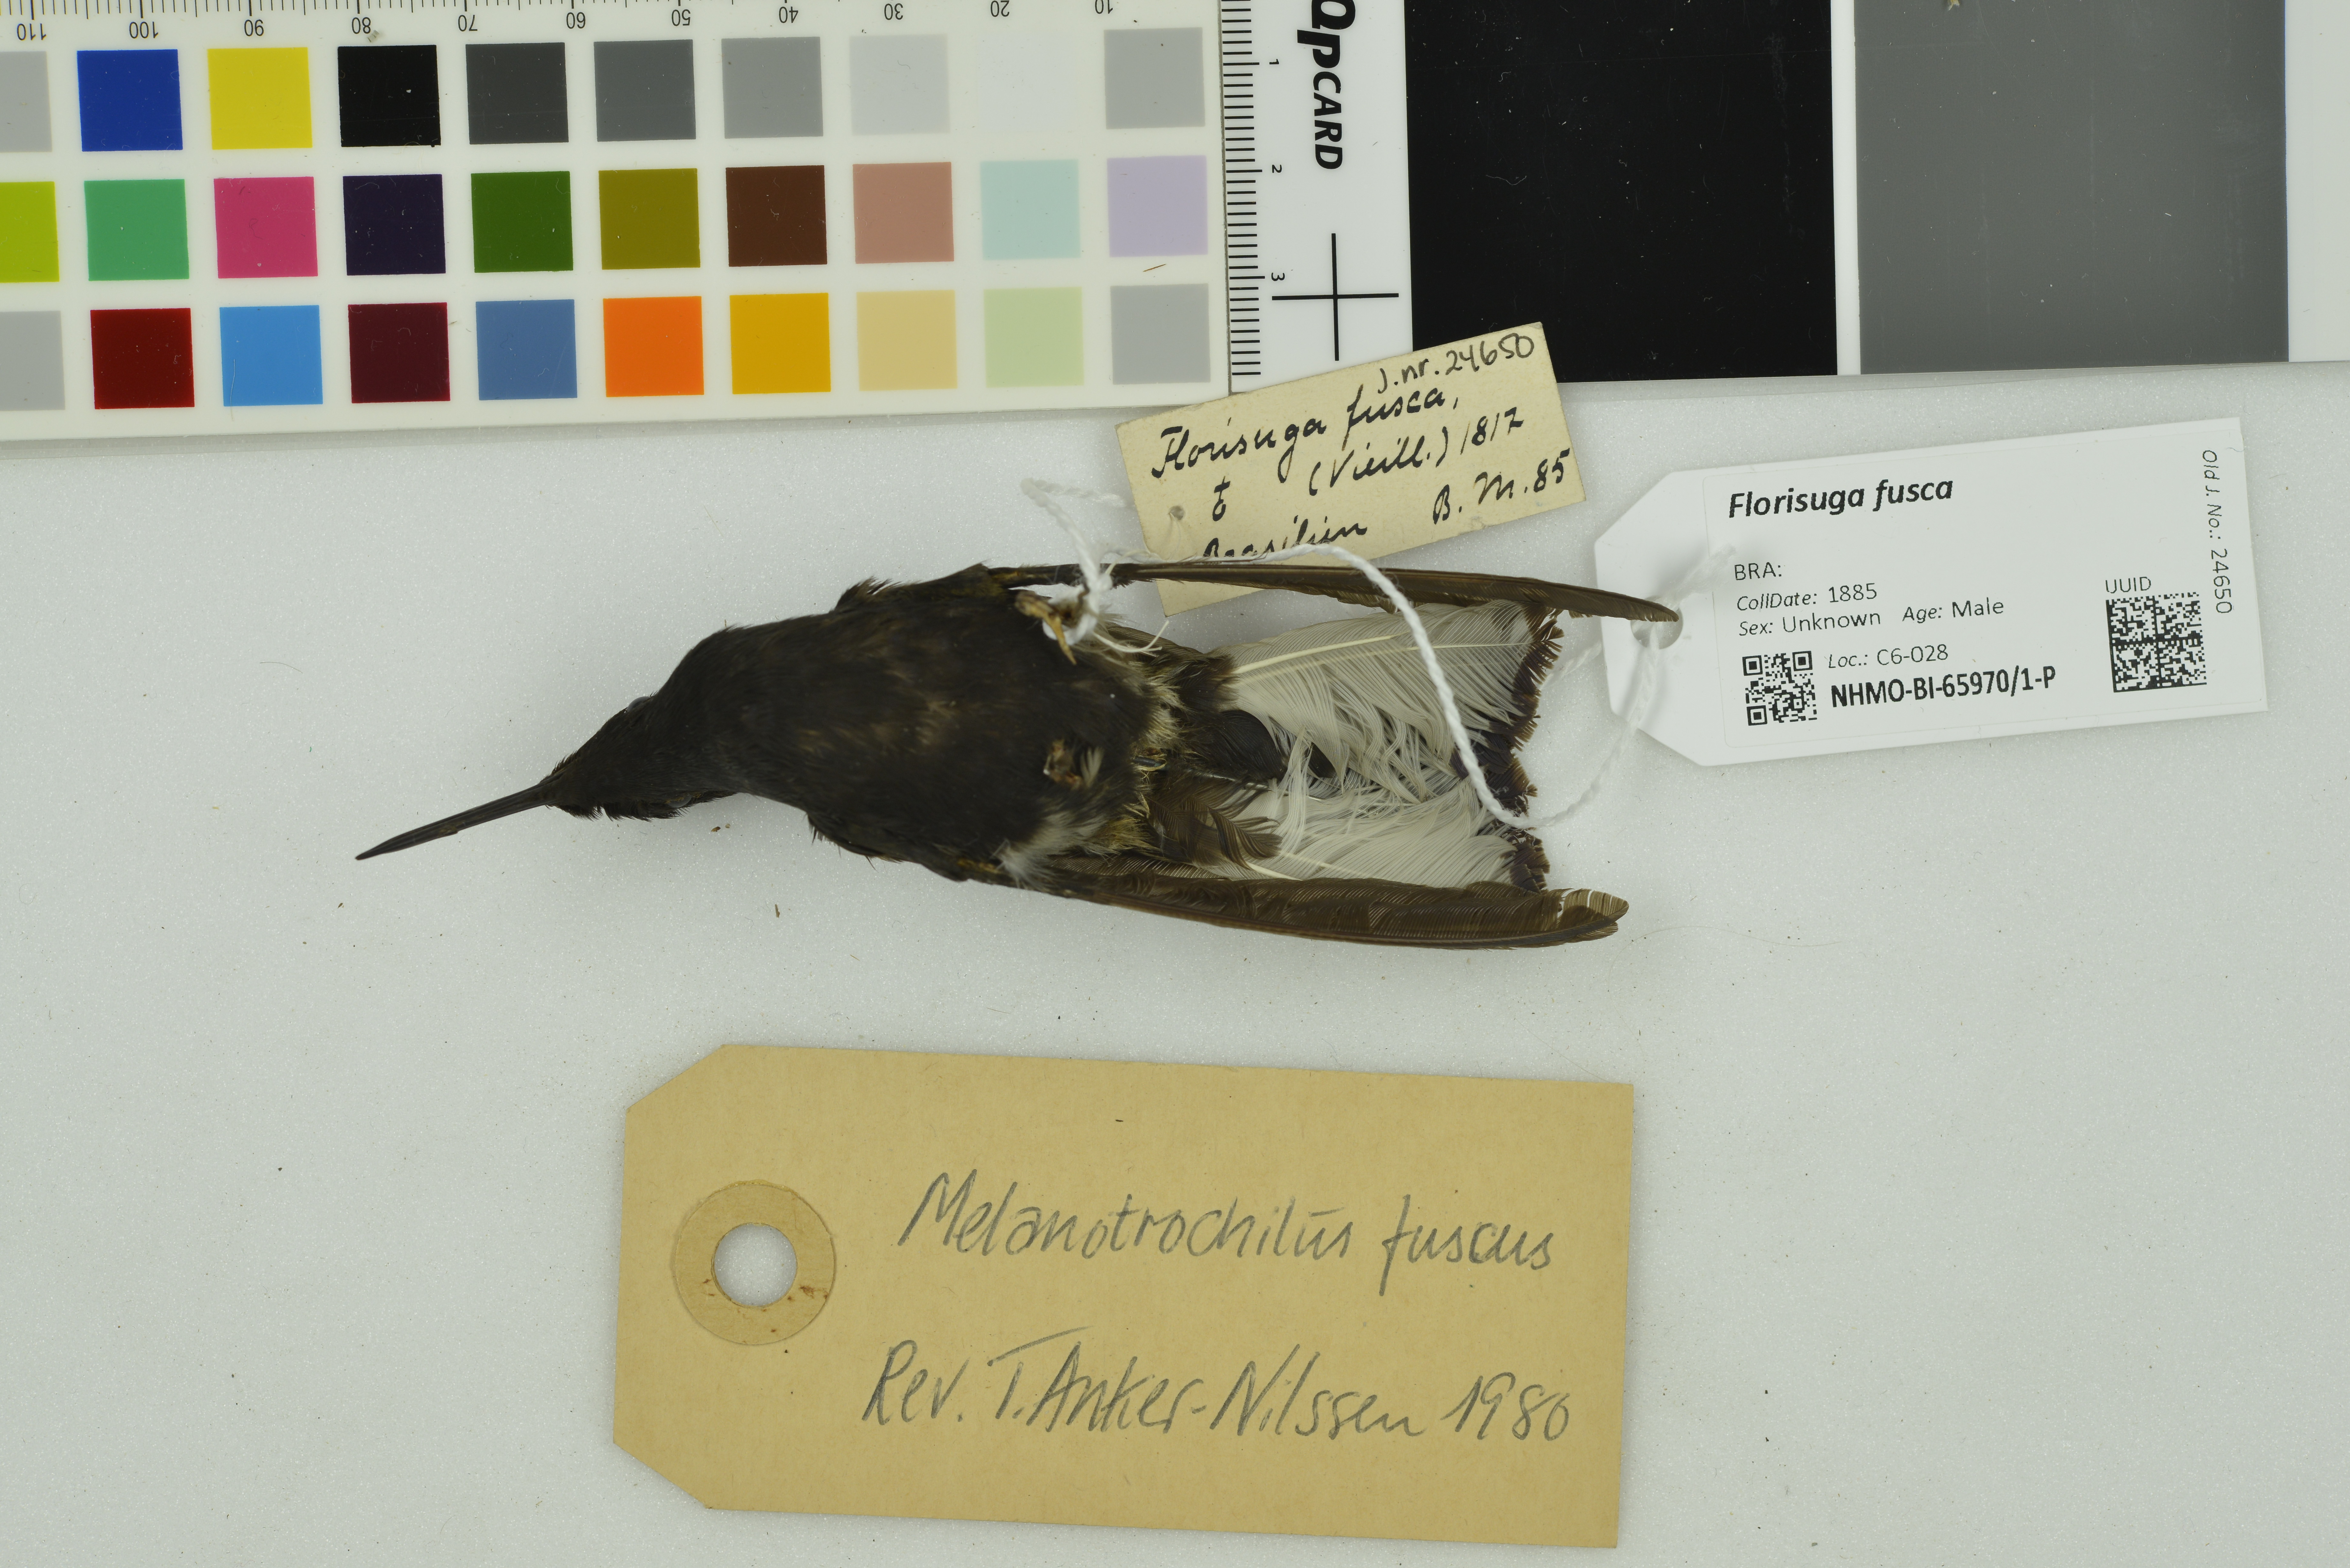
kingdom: Animalia
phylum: Chordata
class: Aves
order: Apodiformes
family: Trochilidae
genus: Florisuga
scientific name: Florisuga fusca
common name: Black jacobin
